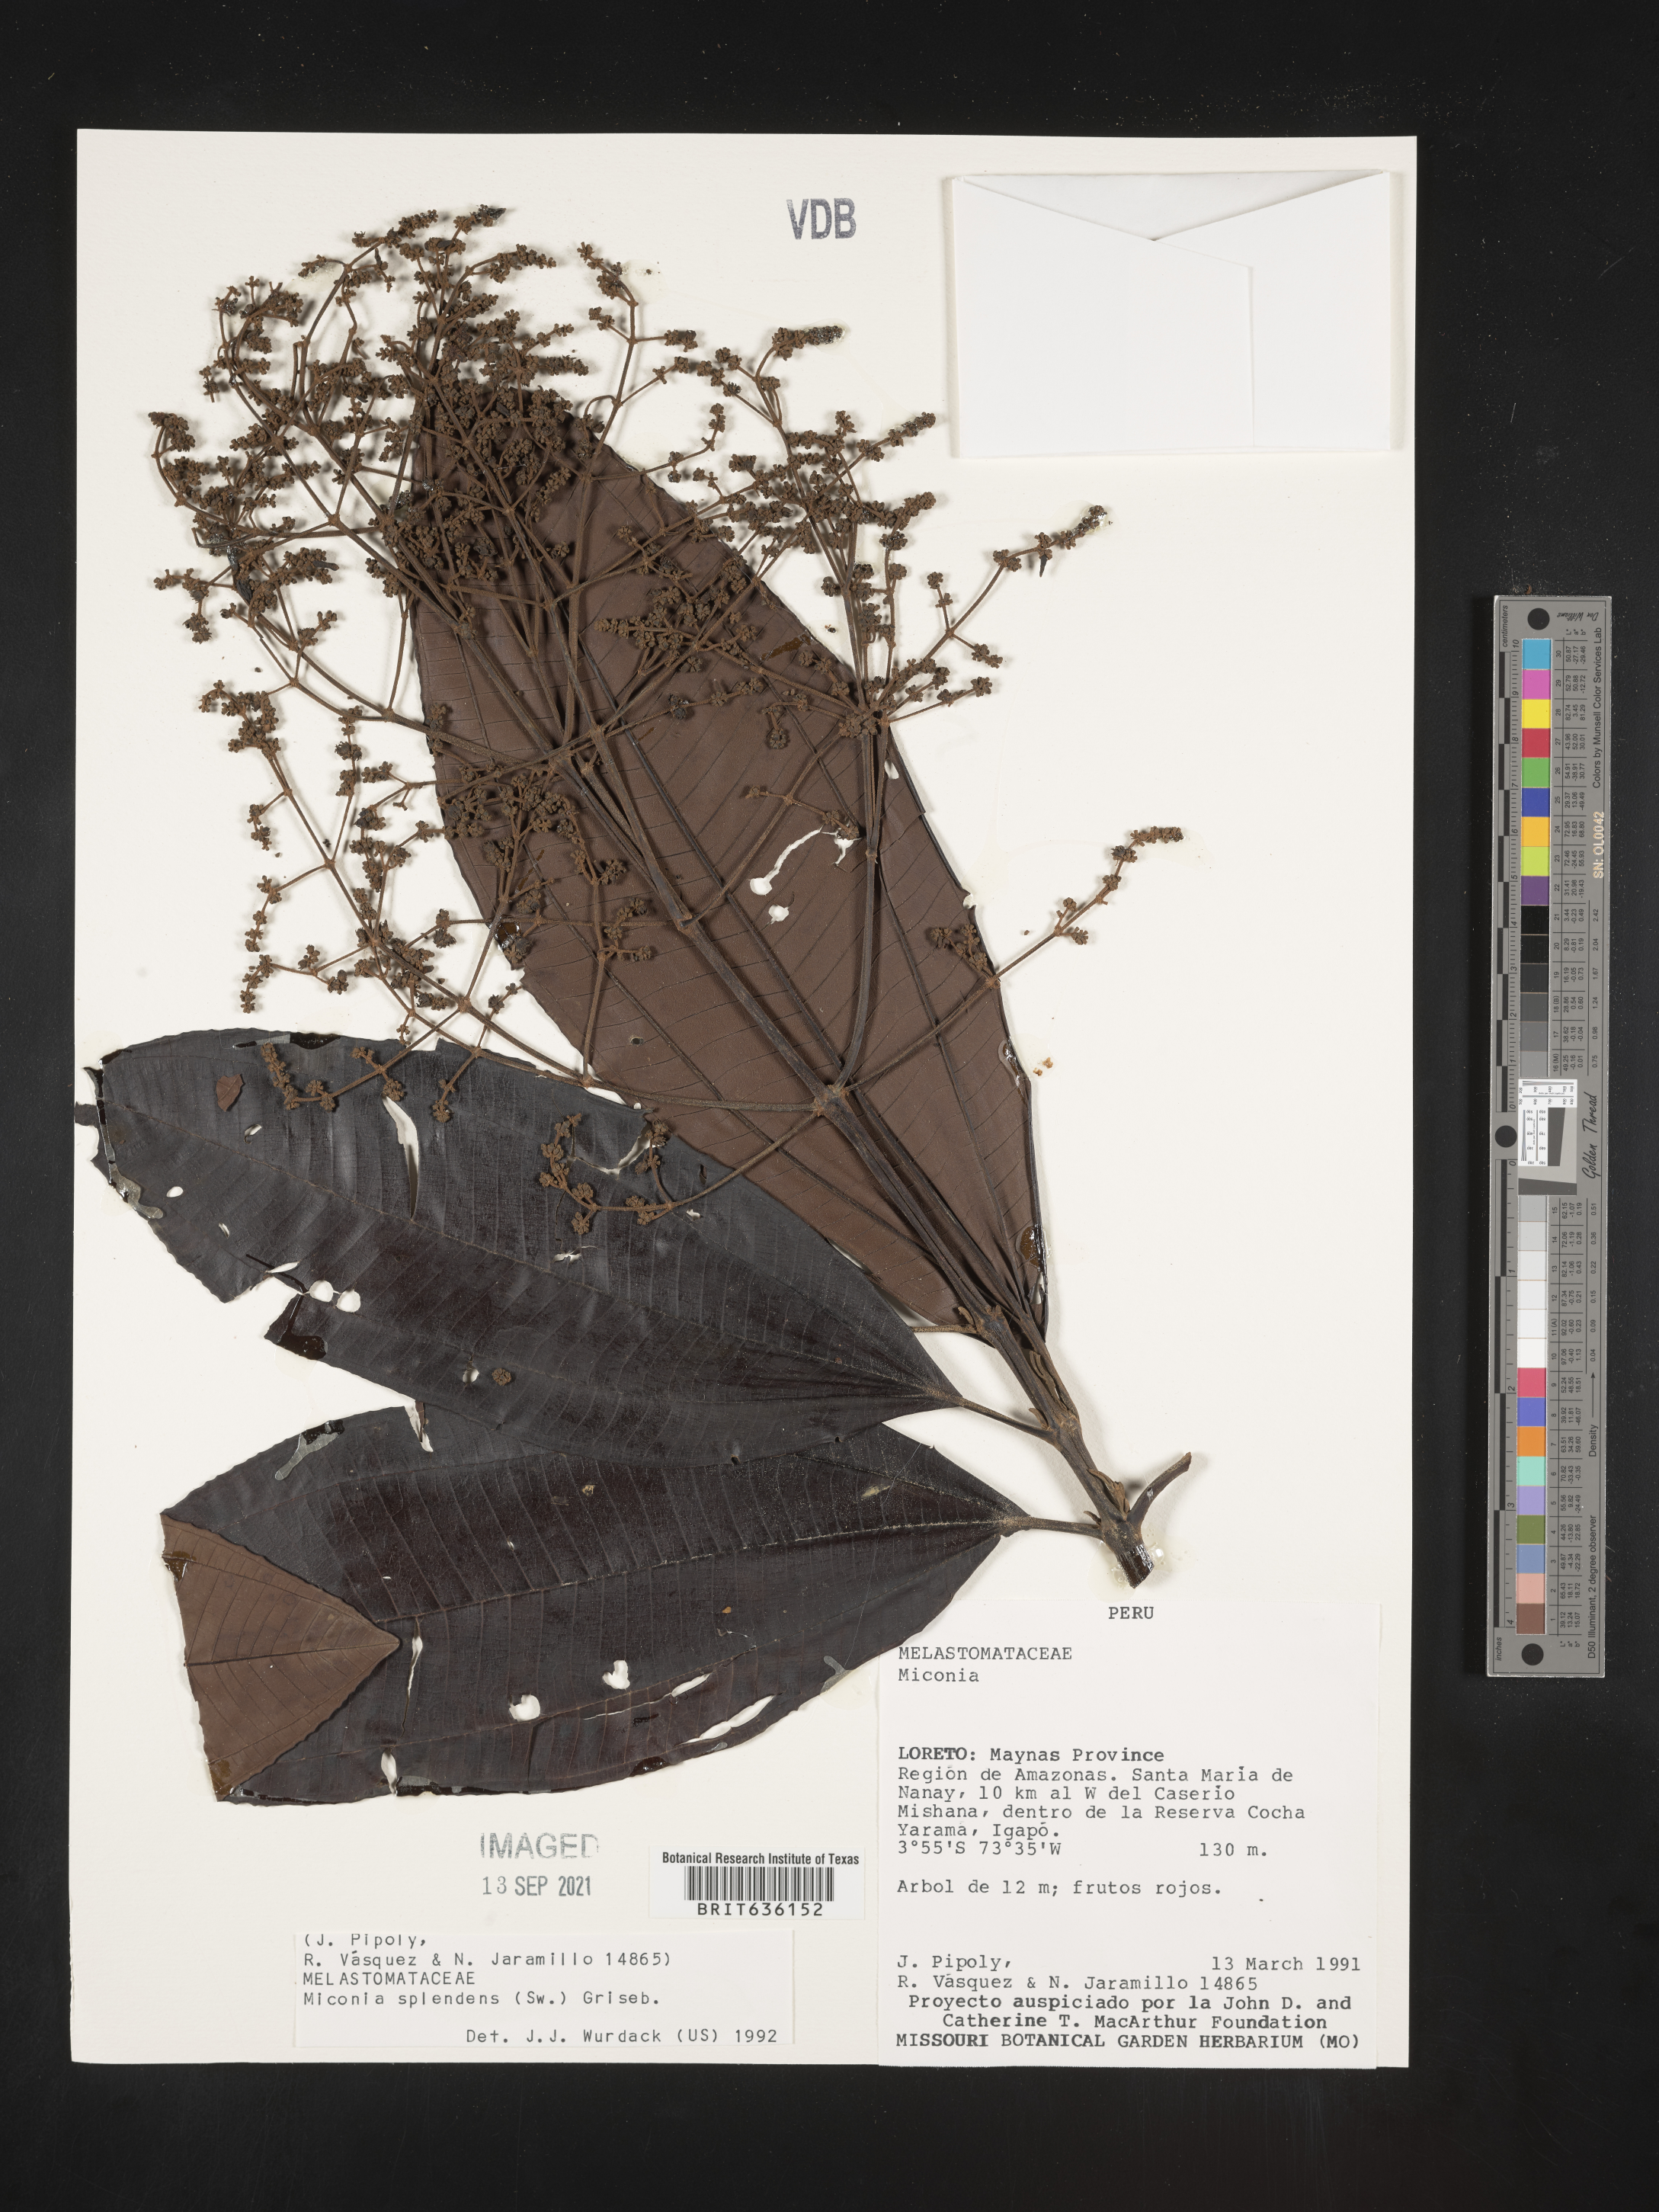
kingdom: Plantae
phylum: Tracheophyta
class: Magnoliopsida
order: Myrtales
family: Melastomataceae
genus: Miconia
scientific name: Miconia
